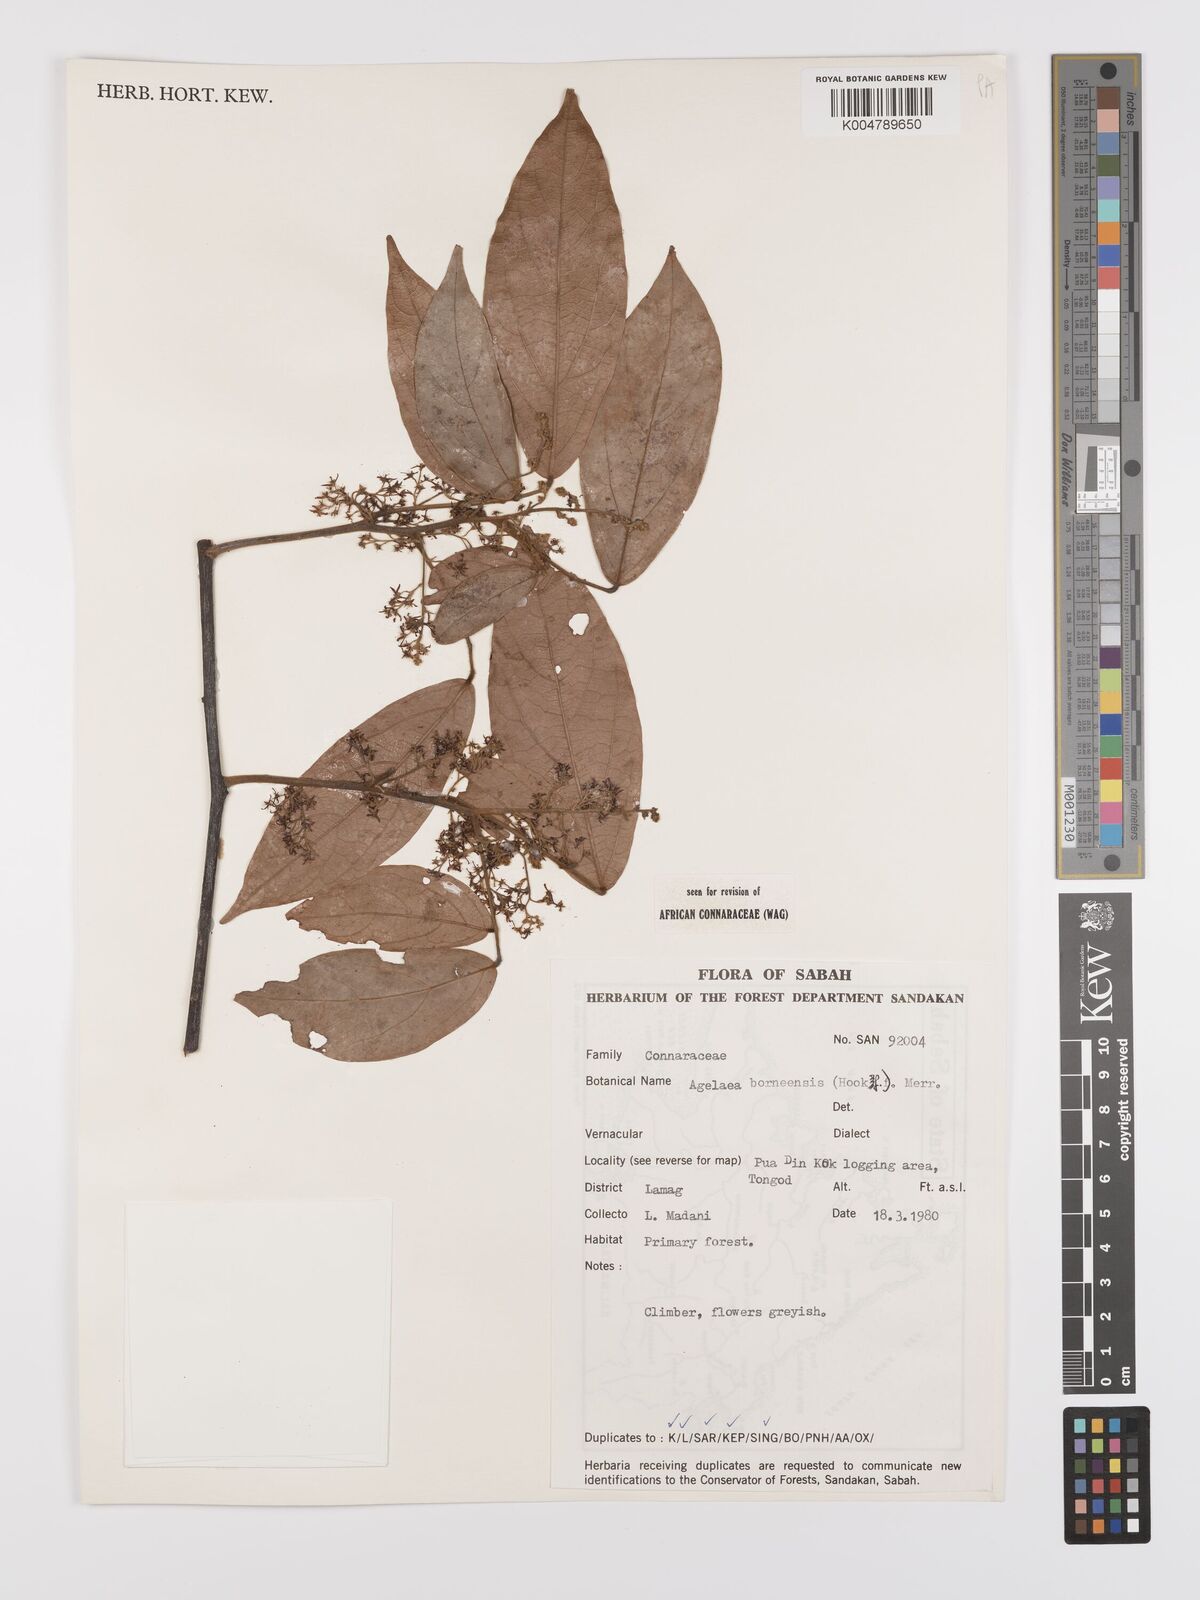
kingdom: Plantae
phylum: Tracheophyta
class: Magnoliopsida
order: Oxalidales
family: Connaraceae
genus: Agelaea
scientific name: Agelaea borneensis
